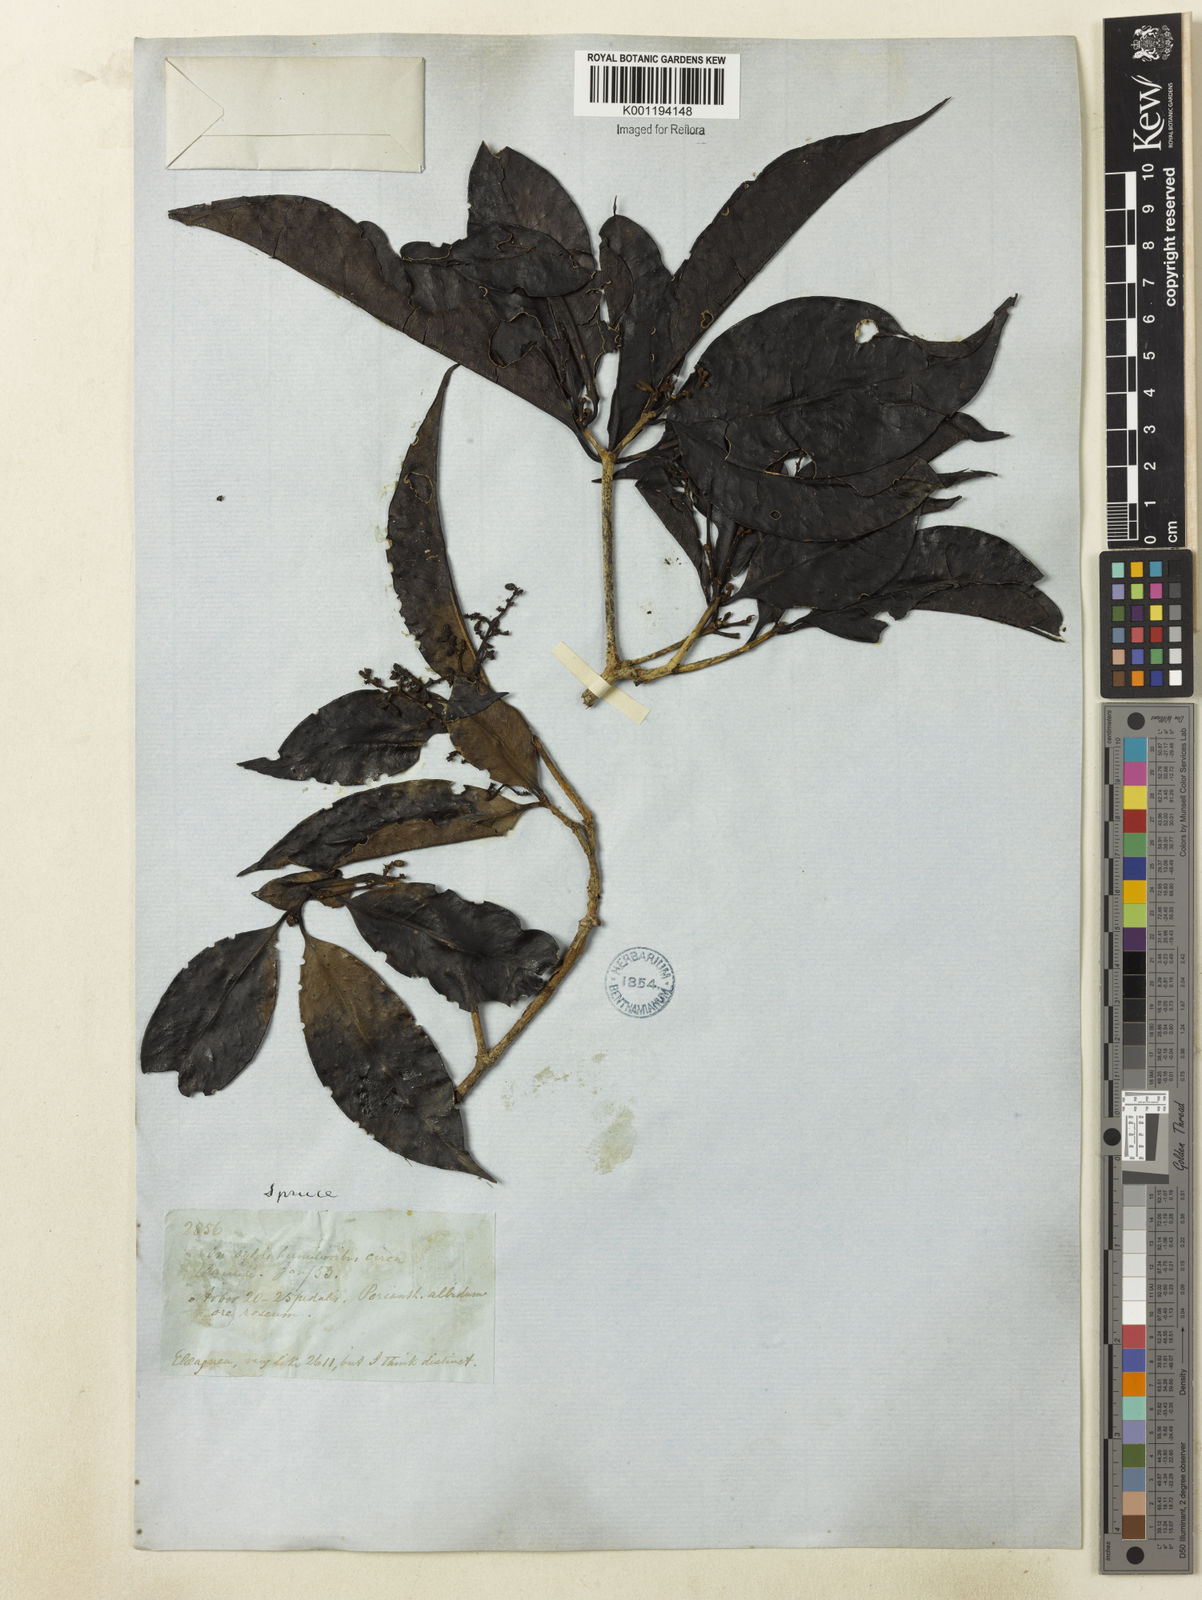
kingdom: Plantae
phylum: Tracheophyta
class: Magnoliopsida
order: Caryophyllales
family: Nyctaginaceae
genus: Neea
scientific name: Neea constricta
